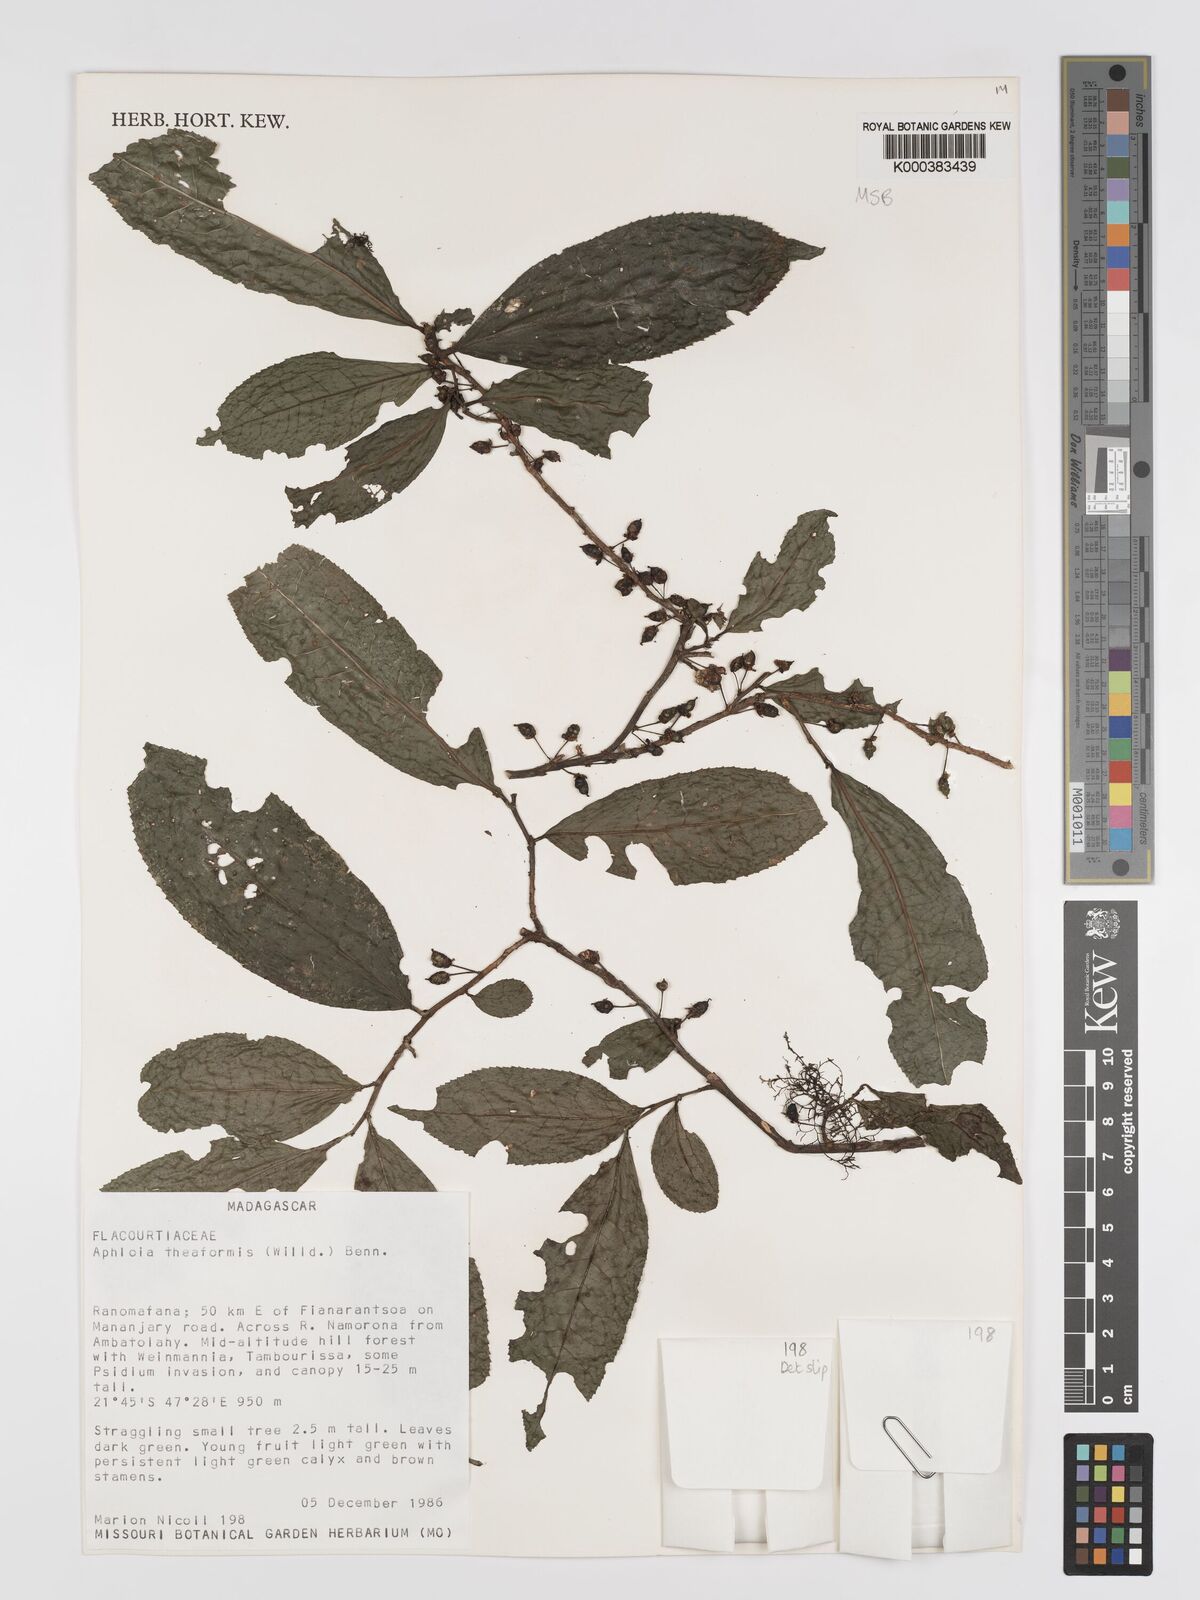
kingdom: Plantae
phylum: Tracheophyta
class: Magnoliopsida
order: Crossosomatales
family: Aphloiaceae
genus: Aphloia
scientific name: Aphloia theiformis
